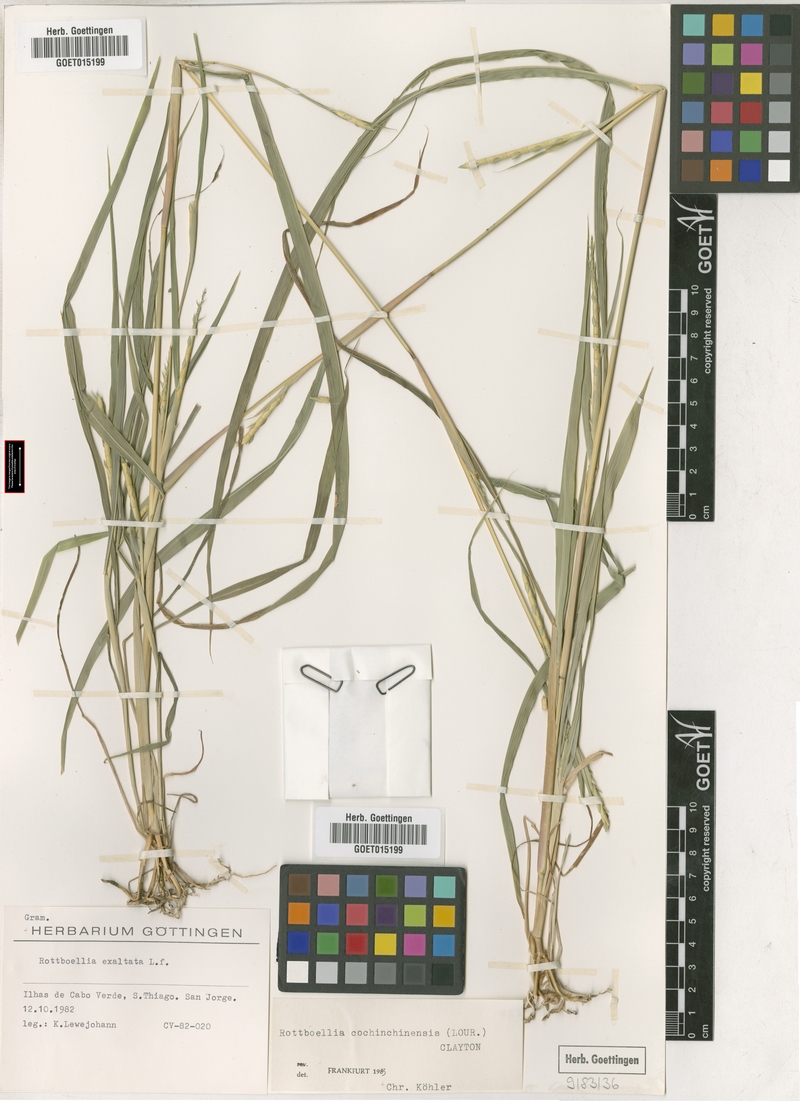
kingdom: Plantae
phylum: Tracheophyta
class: Liliopsida
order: Poales
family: Poaceae
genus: Rottboellia
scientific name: Rottboellia cochinchinensis
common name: Itchgrass
